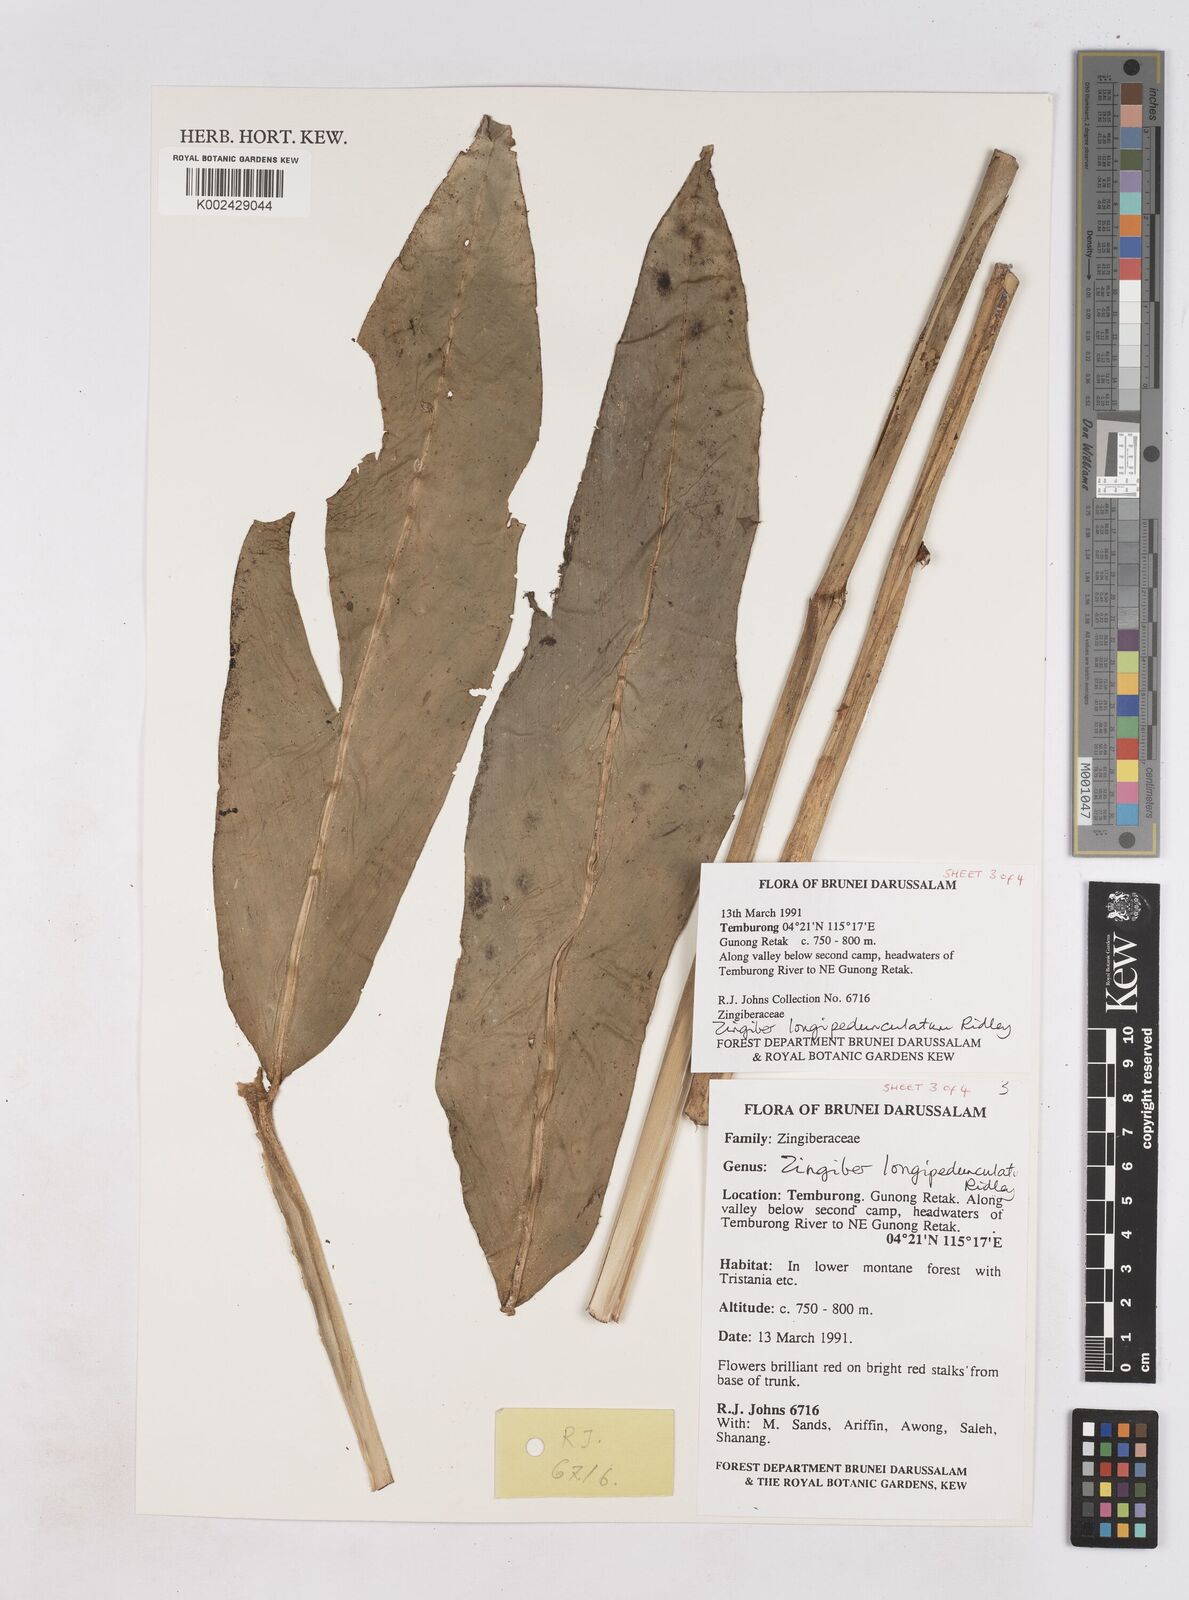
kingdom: Plantae
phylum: Tracheophyta
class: Liliopsida
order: Zingiberales
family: Zingiberaceae
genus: Zingiber
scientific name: Zingiber longipedunculatum
